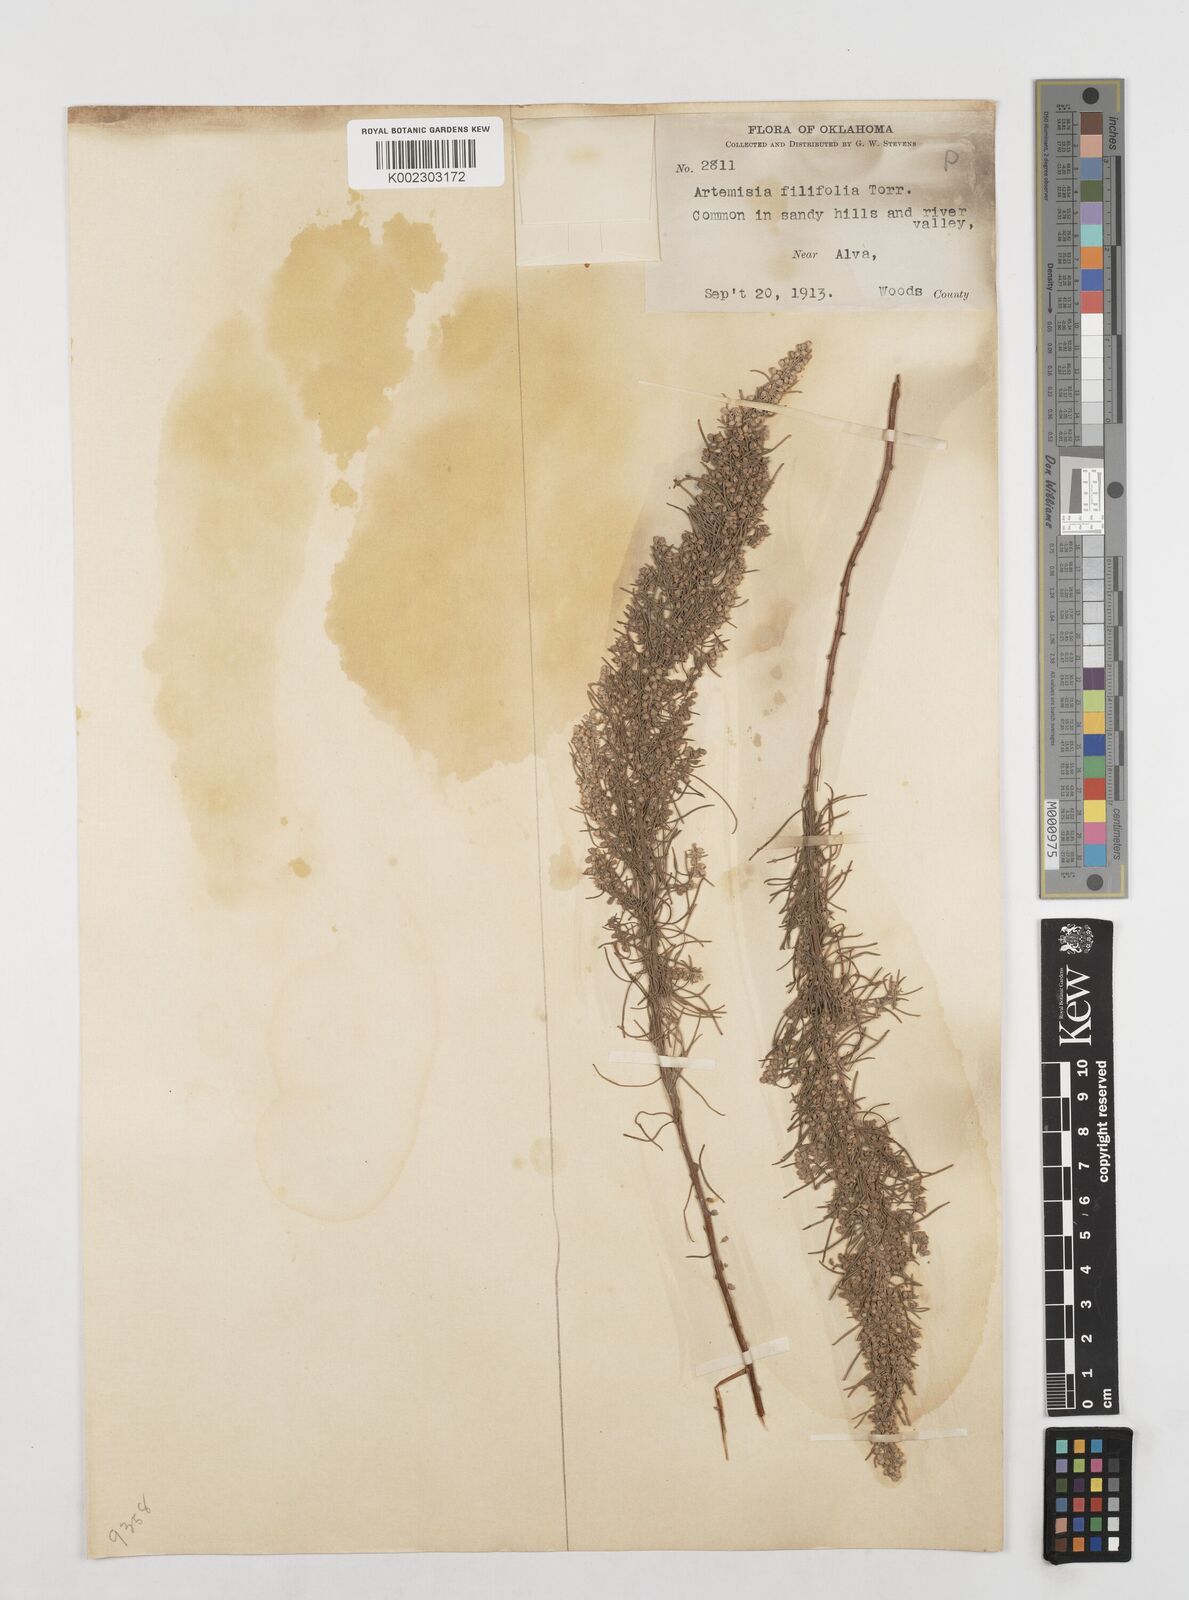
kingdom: Plantae
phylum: Tracheophyta
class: Magnoliopsida
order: Asterales
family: Asteraceae
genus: Artemisia
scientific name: Artemisia filifolia
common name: Sand-sage
